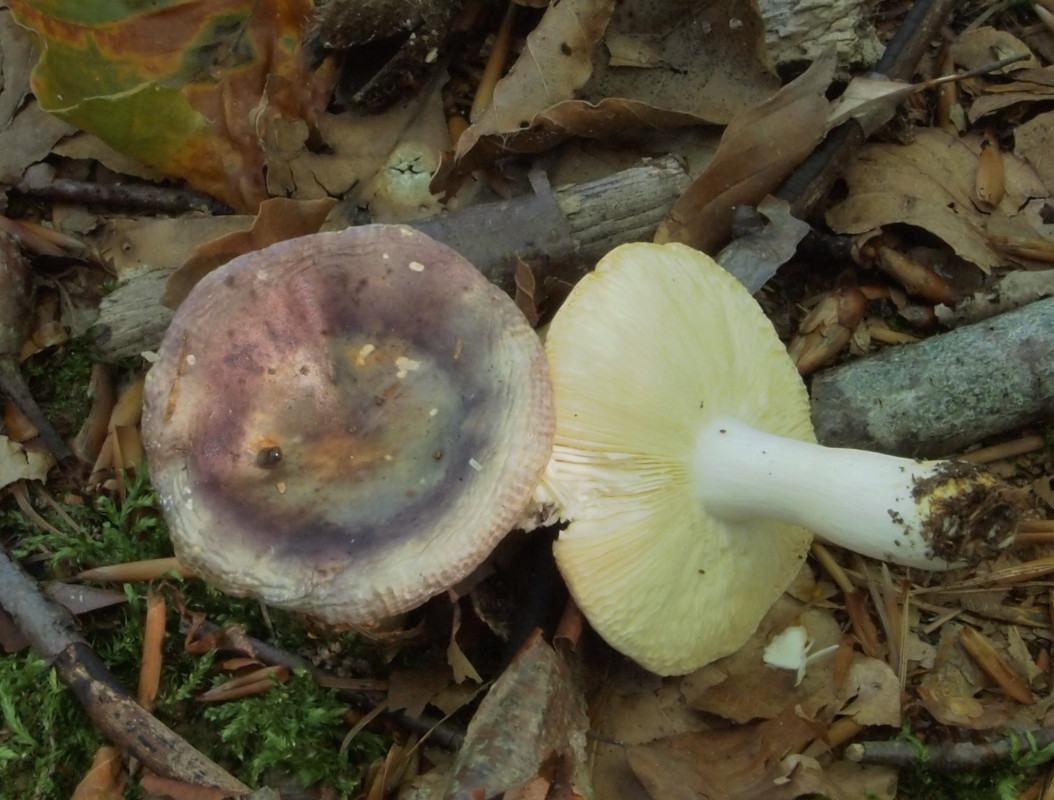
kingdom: Fungi
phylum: Basidiomycota
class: Agaricomycetes
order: Russulales
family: Russulaceae
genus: Russula
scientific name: Russula
